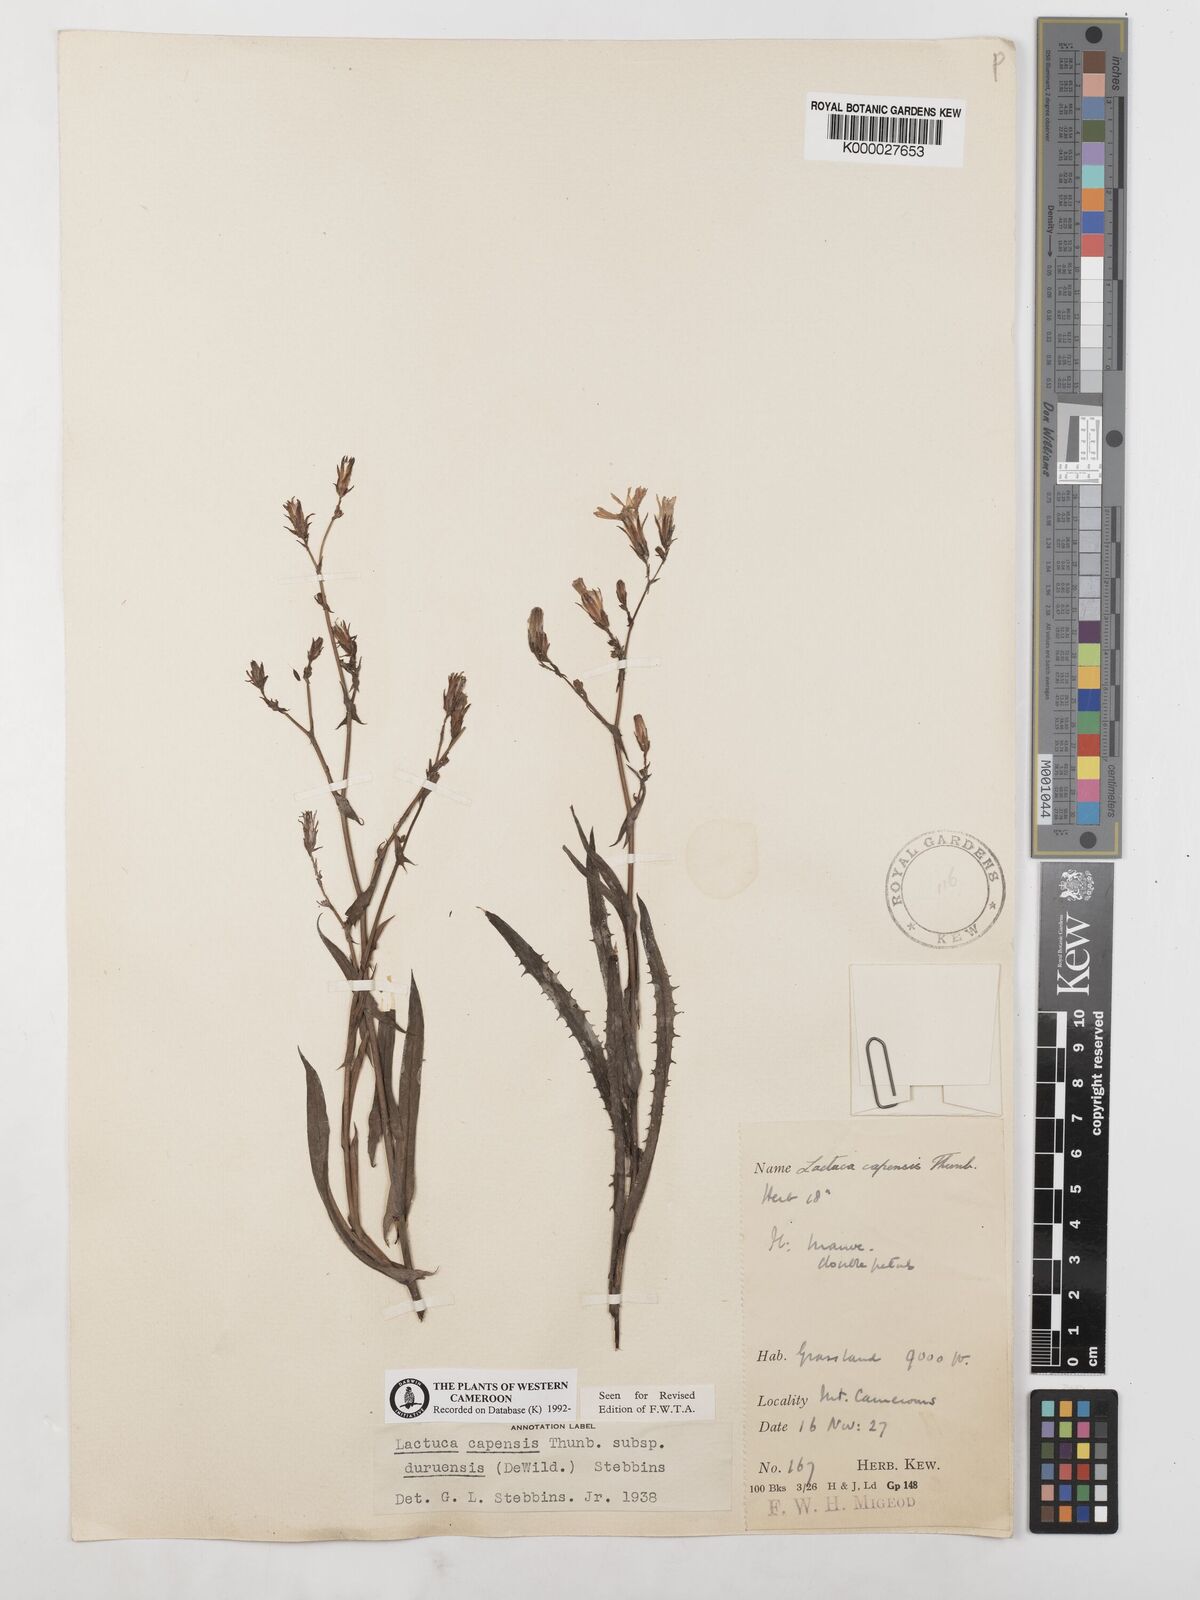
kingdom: Plantae
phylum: Tracheophyta
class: Magnoliopsida
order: Asterales
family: Asteraceae
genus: Lactuca
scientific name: Lactuca inermis
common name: Wild lettuce
